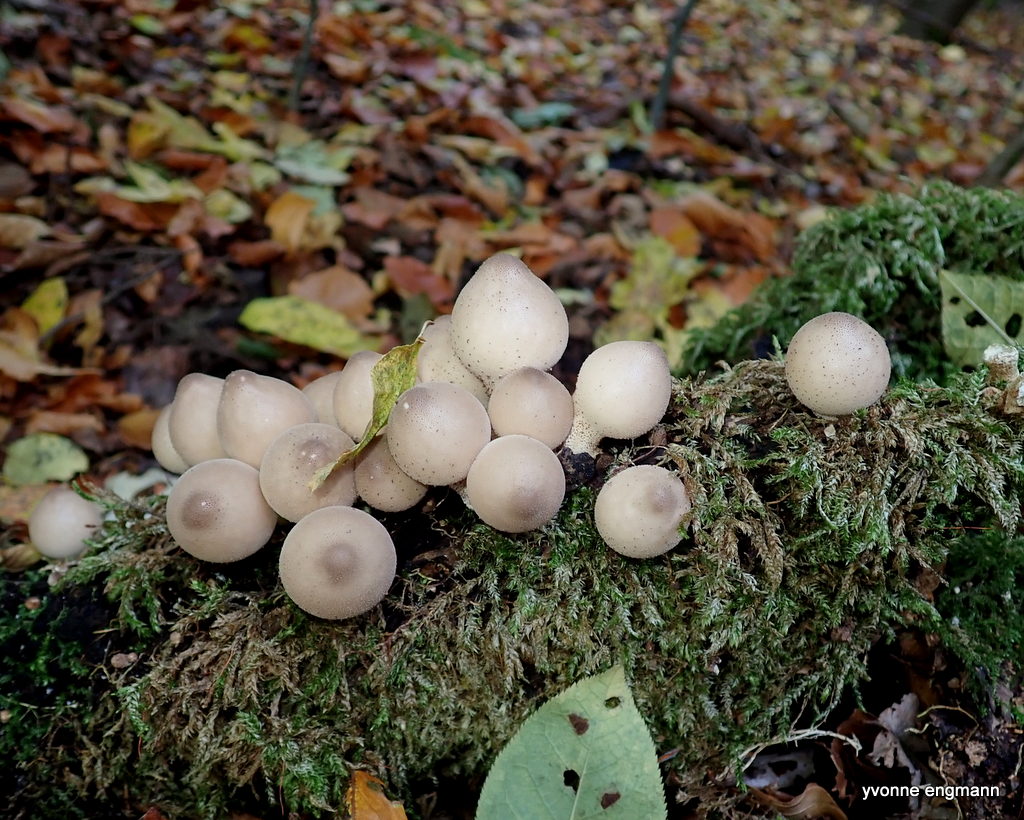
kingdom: Fungi
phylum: Basidiomycota
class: Agaricomycetes
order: Agaricales
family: Lycoperdaceae
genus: Apioperdon
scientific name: Apioperdon pyriforme
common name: pære-støvbold
